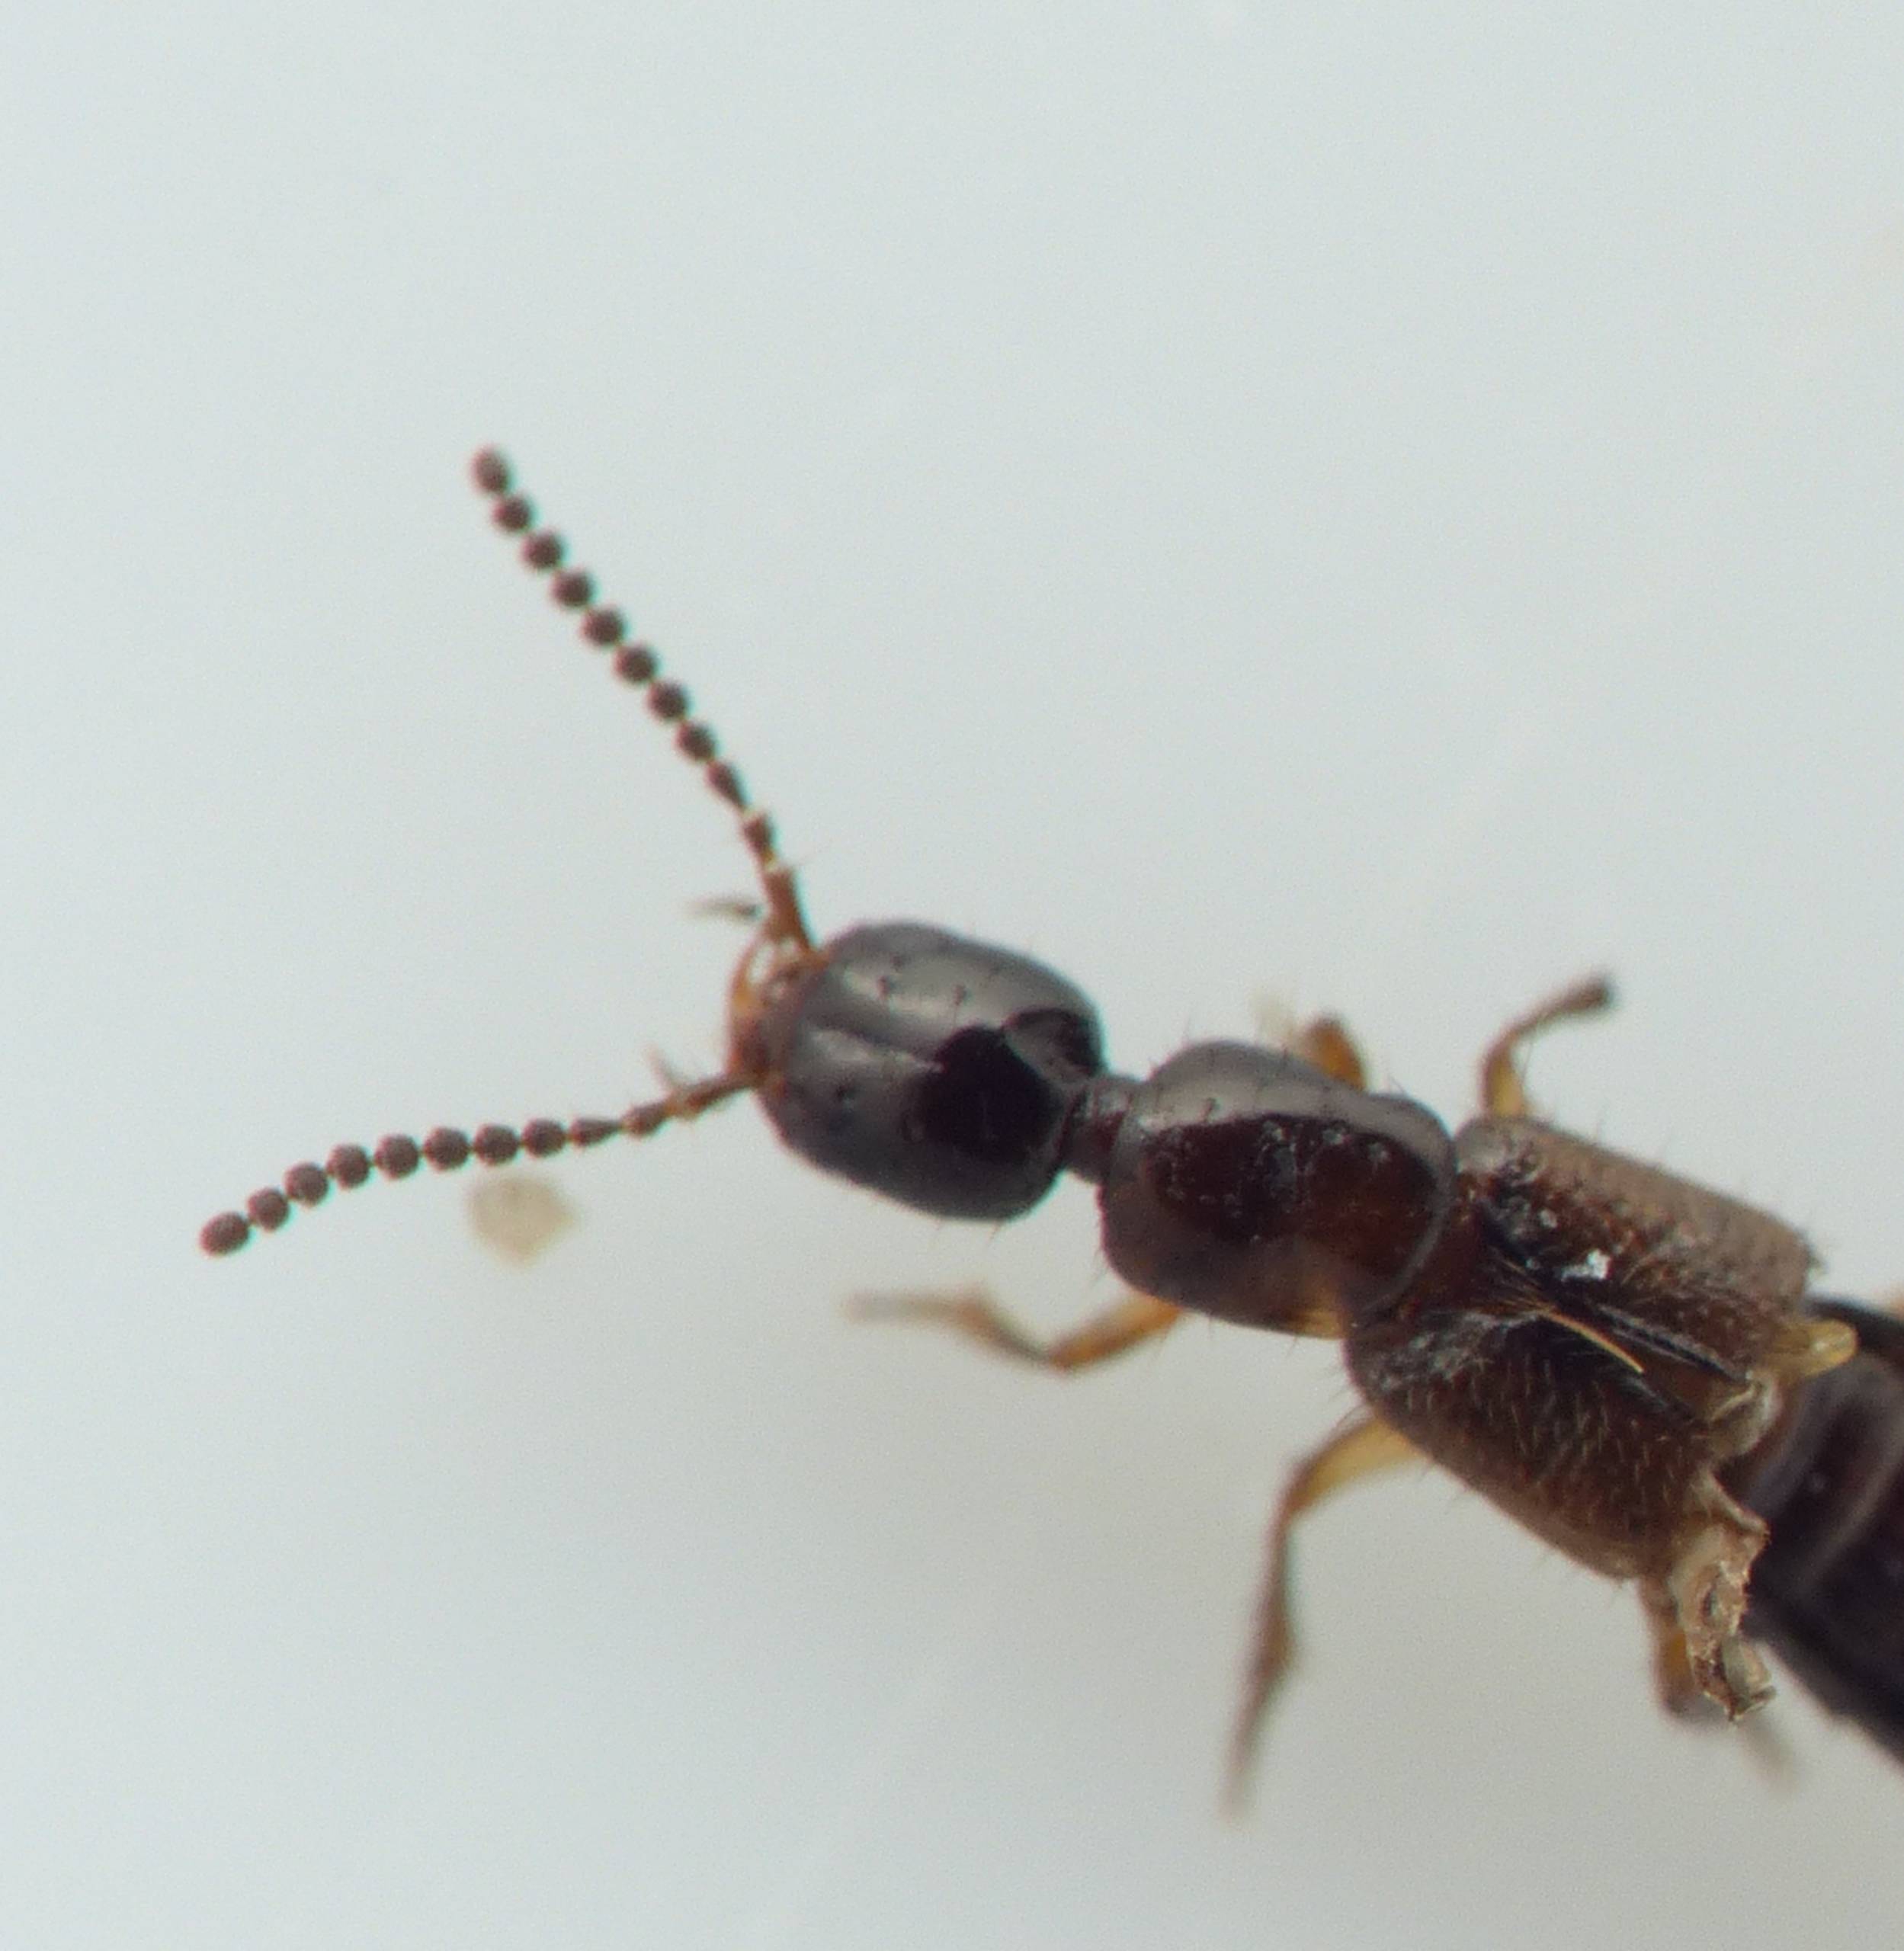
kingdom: Animalia
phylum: Arthropoda
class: Insecta
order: Coleoptera
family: Staphylinidae
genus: Gabronthus
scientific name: Gabronthus sulcifrons
